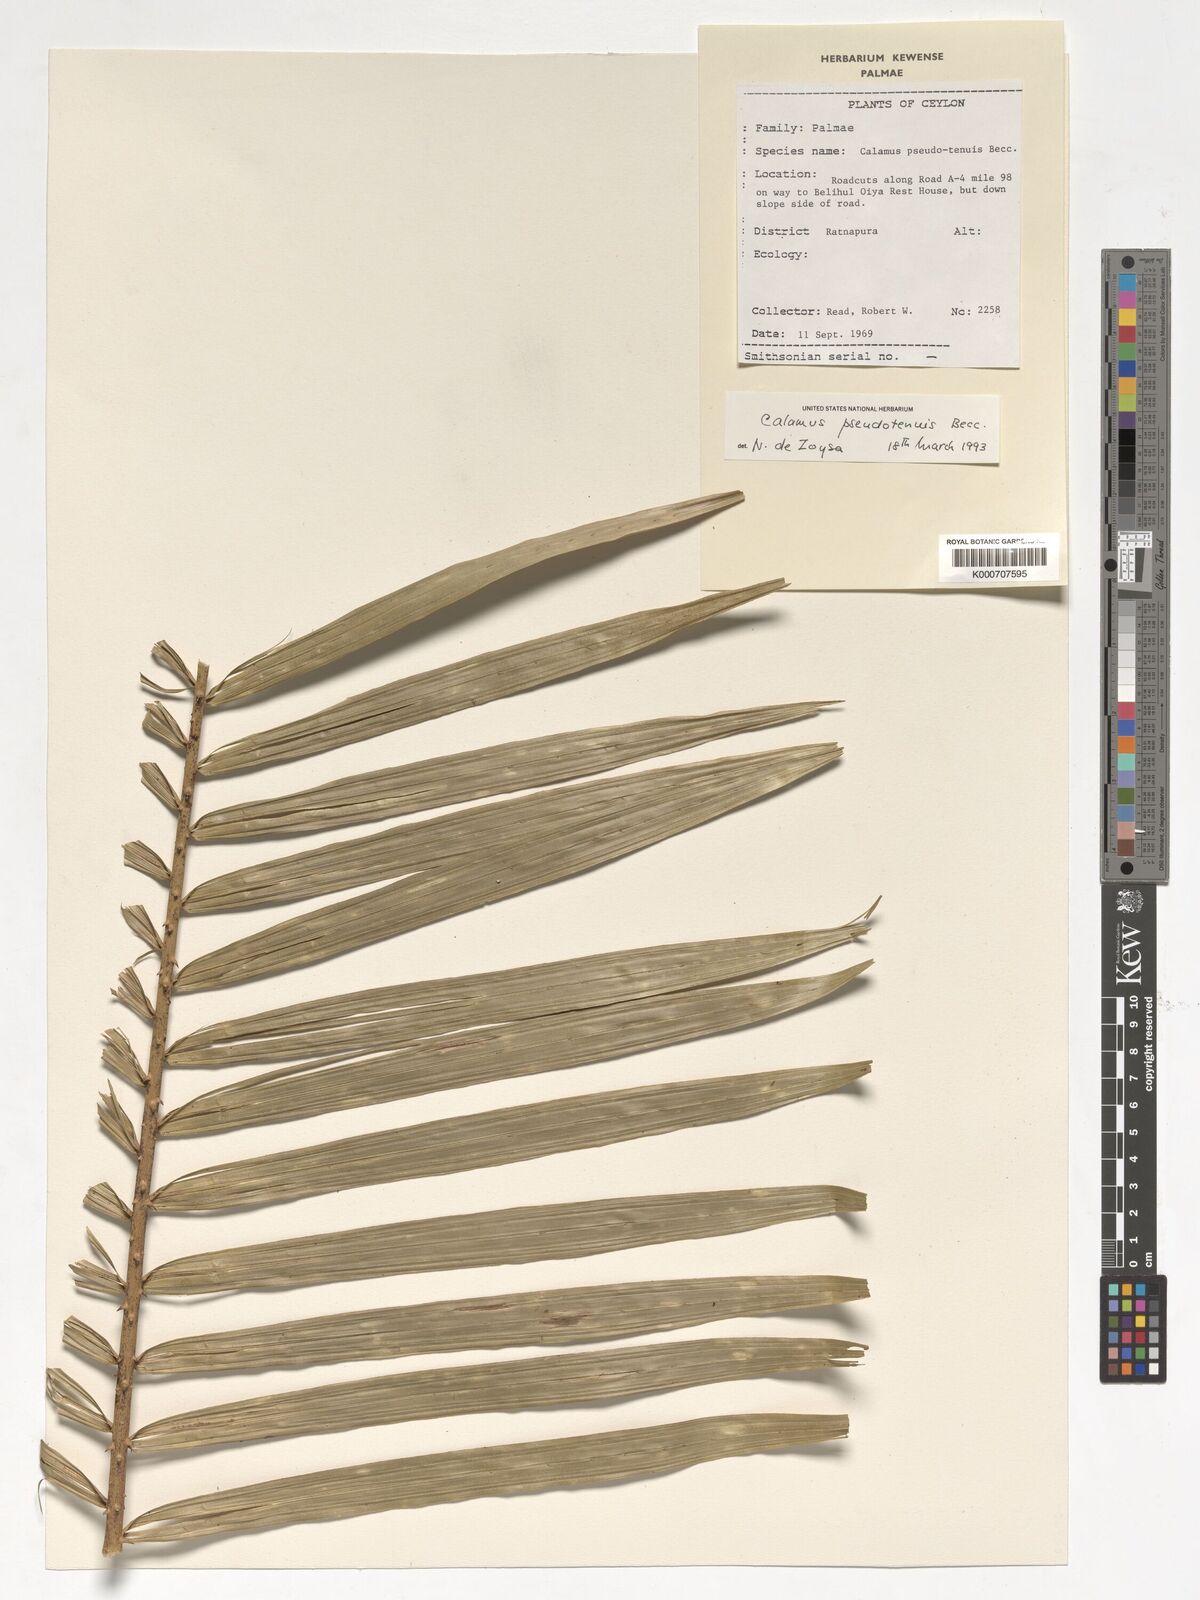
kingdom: Plantae
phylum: Tracheophyta
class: Liliopsida
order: Arecales
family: Arecaceae
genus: Calamus
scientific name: Calamus pseudotenuis
